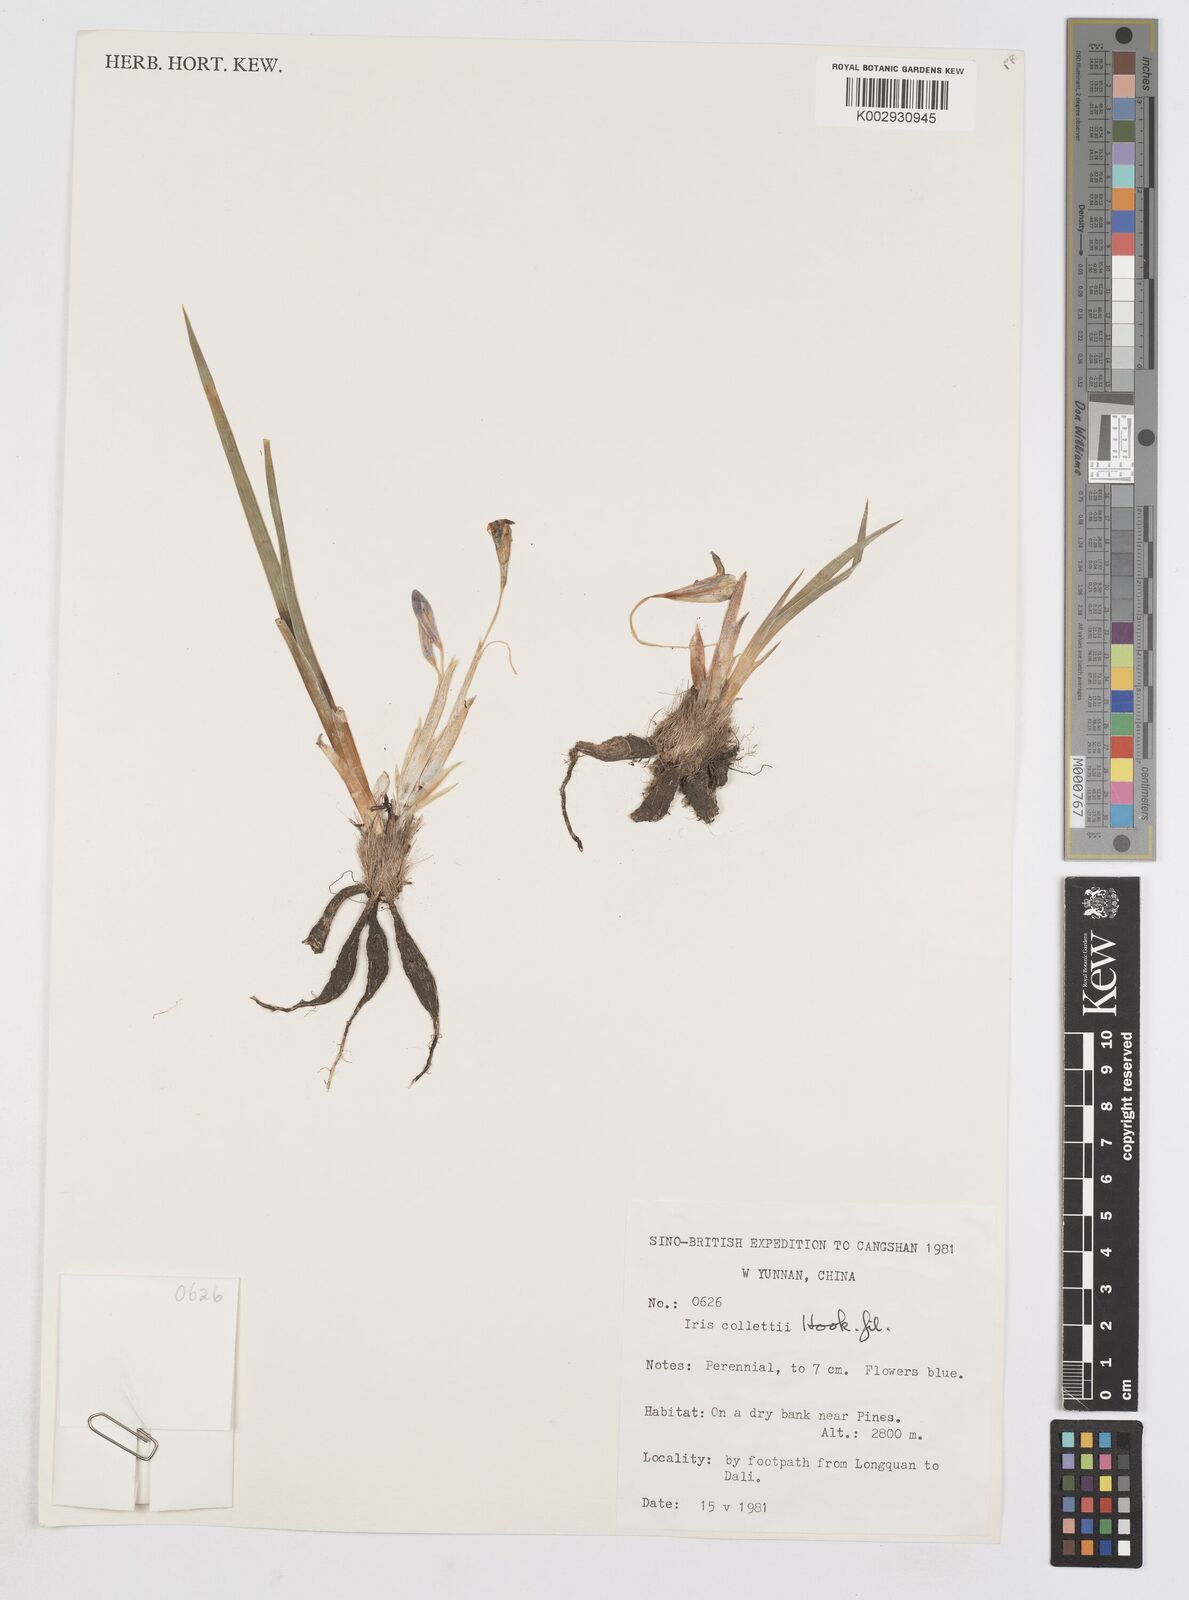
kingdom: Plantae
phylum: Tracheophyta
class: Liliopsida
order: Asparagales
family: Iridaceae
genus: Iris
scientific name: Iris collettii
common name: Plateau iris
